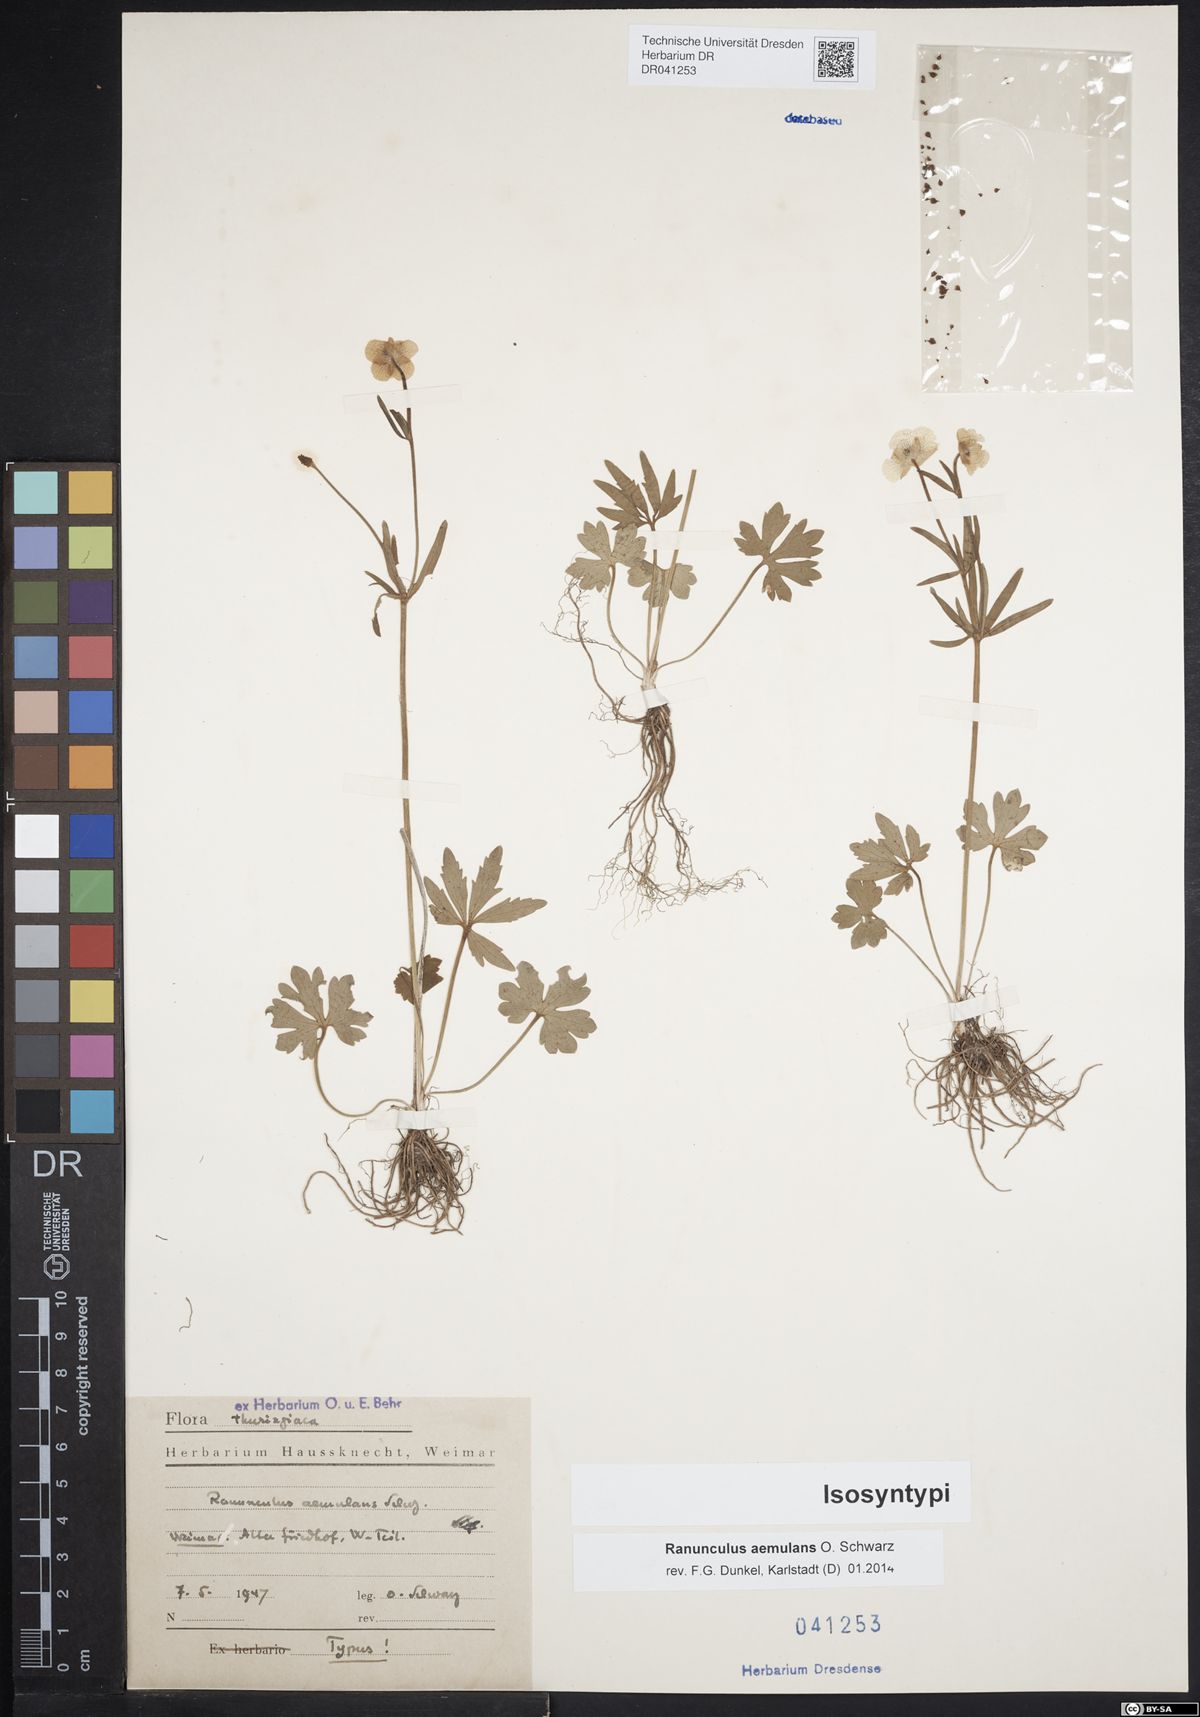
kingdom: Plantae
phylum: Tracheophyta
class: Magnoliopsida
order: Ranunculales
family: Ranunculaceae
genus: Ranunculus
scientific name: Ranunculus aemulans
